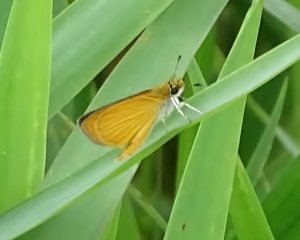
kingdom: Animalia
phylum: Arthropoda
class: Insecta
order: Lepidoptera
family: Hesperiidae
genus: Ancyloxypha
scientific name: Ancyloxypha numitor
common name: Least Skipper
